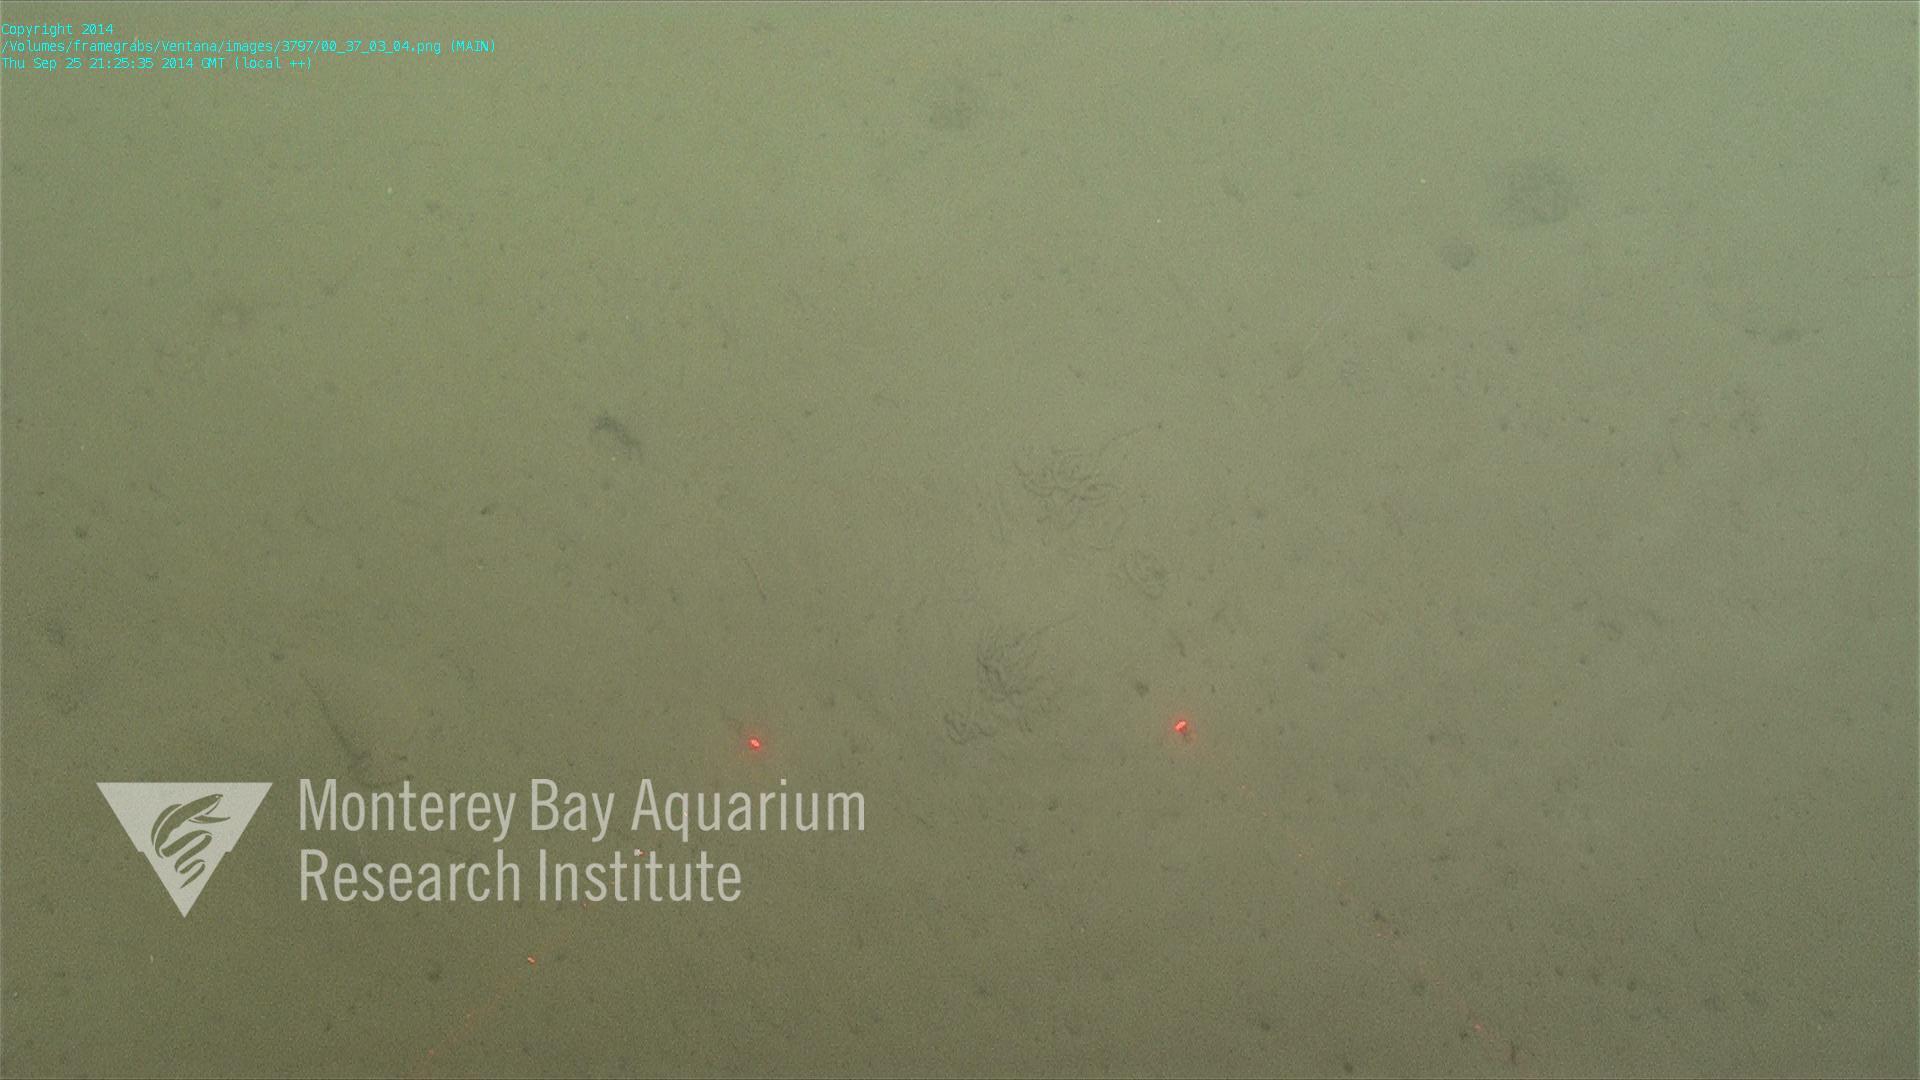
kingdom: Animalia
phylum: Cnidaria
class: Anthozoa
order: Scleralcyonacea
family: Virgulariidae
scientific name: Virgulariidae
